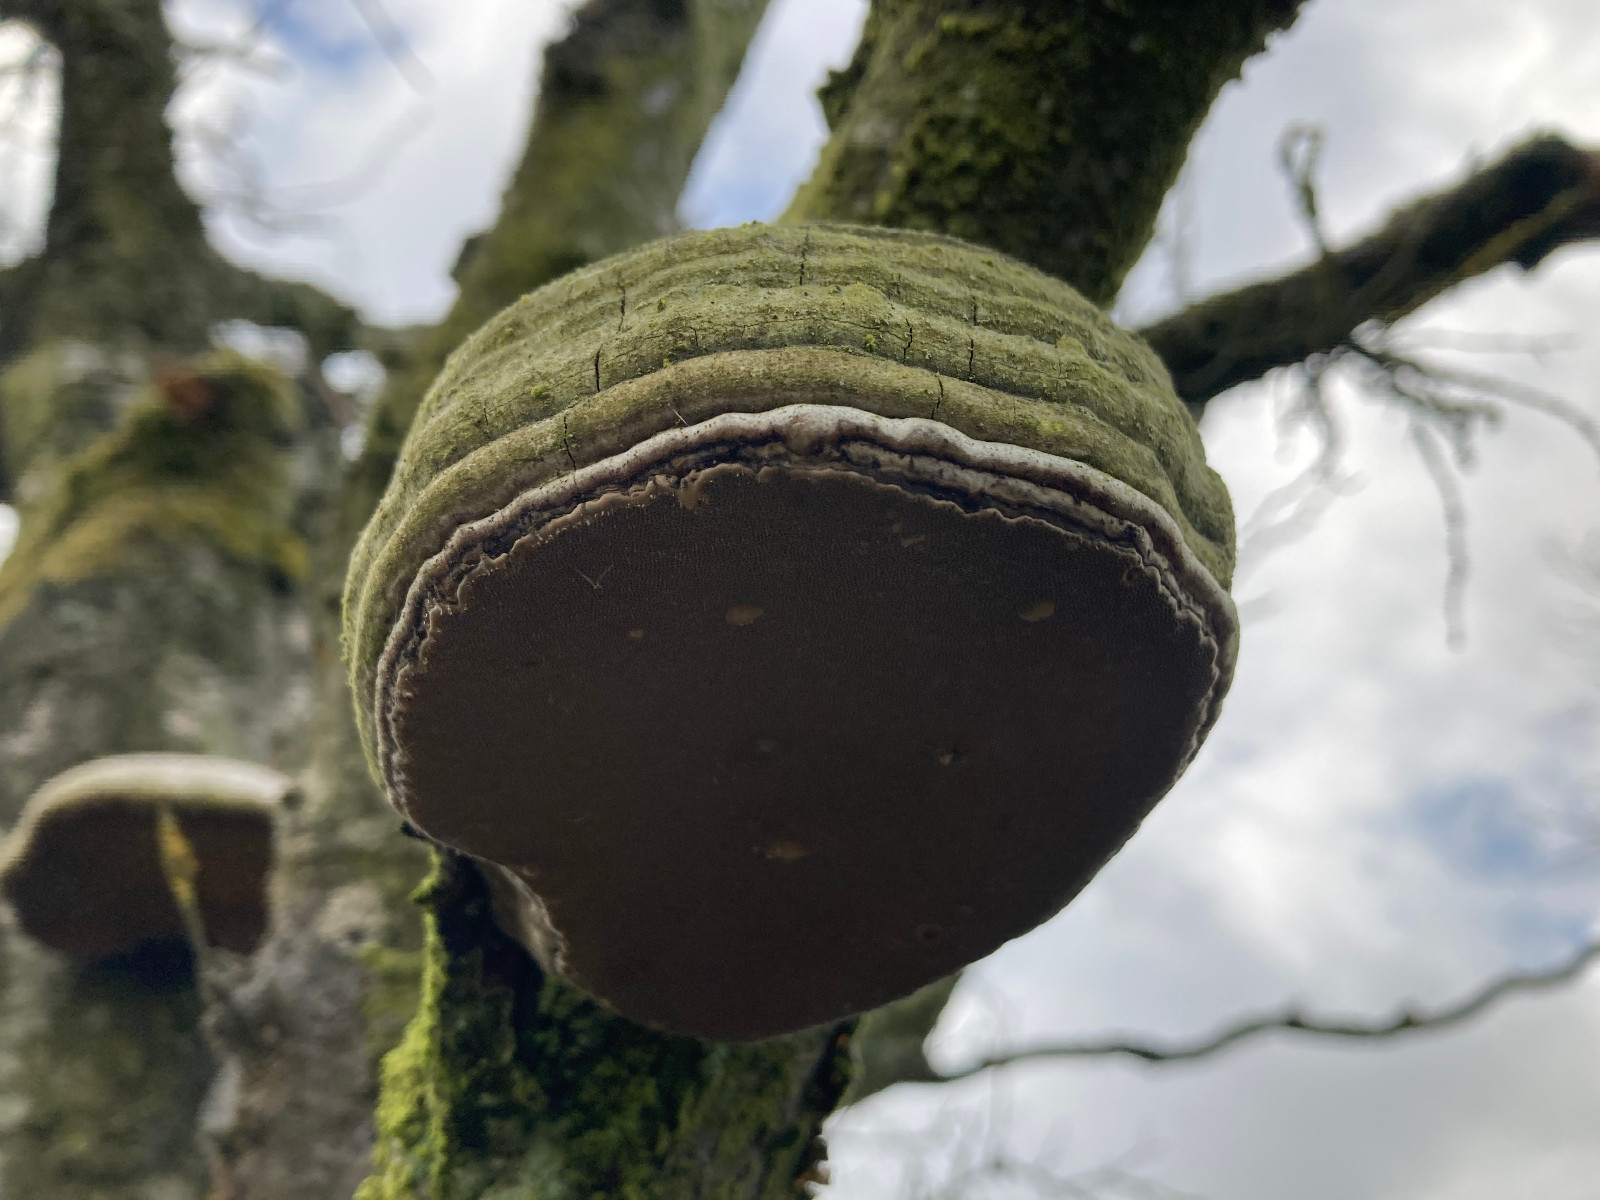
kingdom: Fungi
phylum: Basidiomycota
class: Agaricomycetes
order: Polyporales
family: Polyporaceae
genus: Fomes
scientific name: Fomes fomentarius
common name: tøndersvamp
